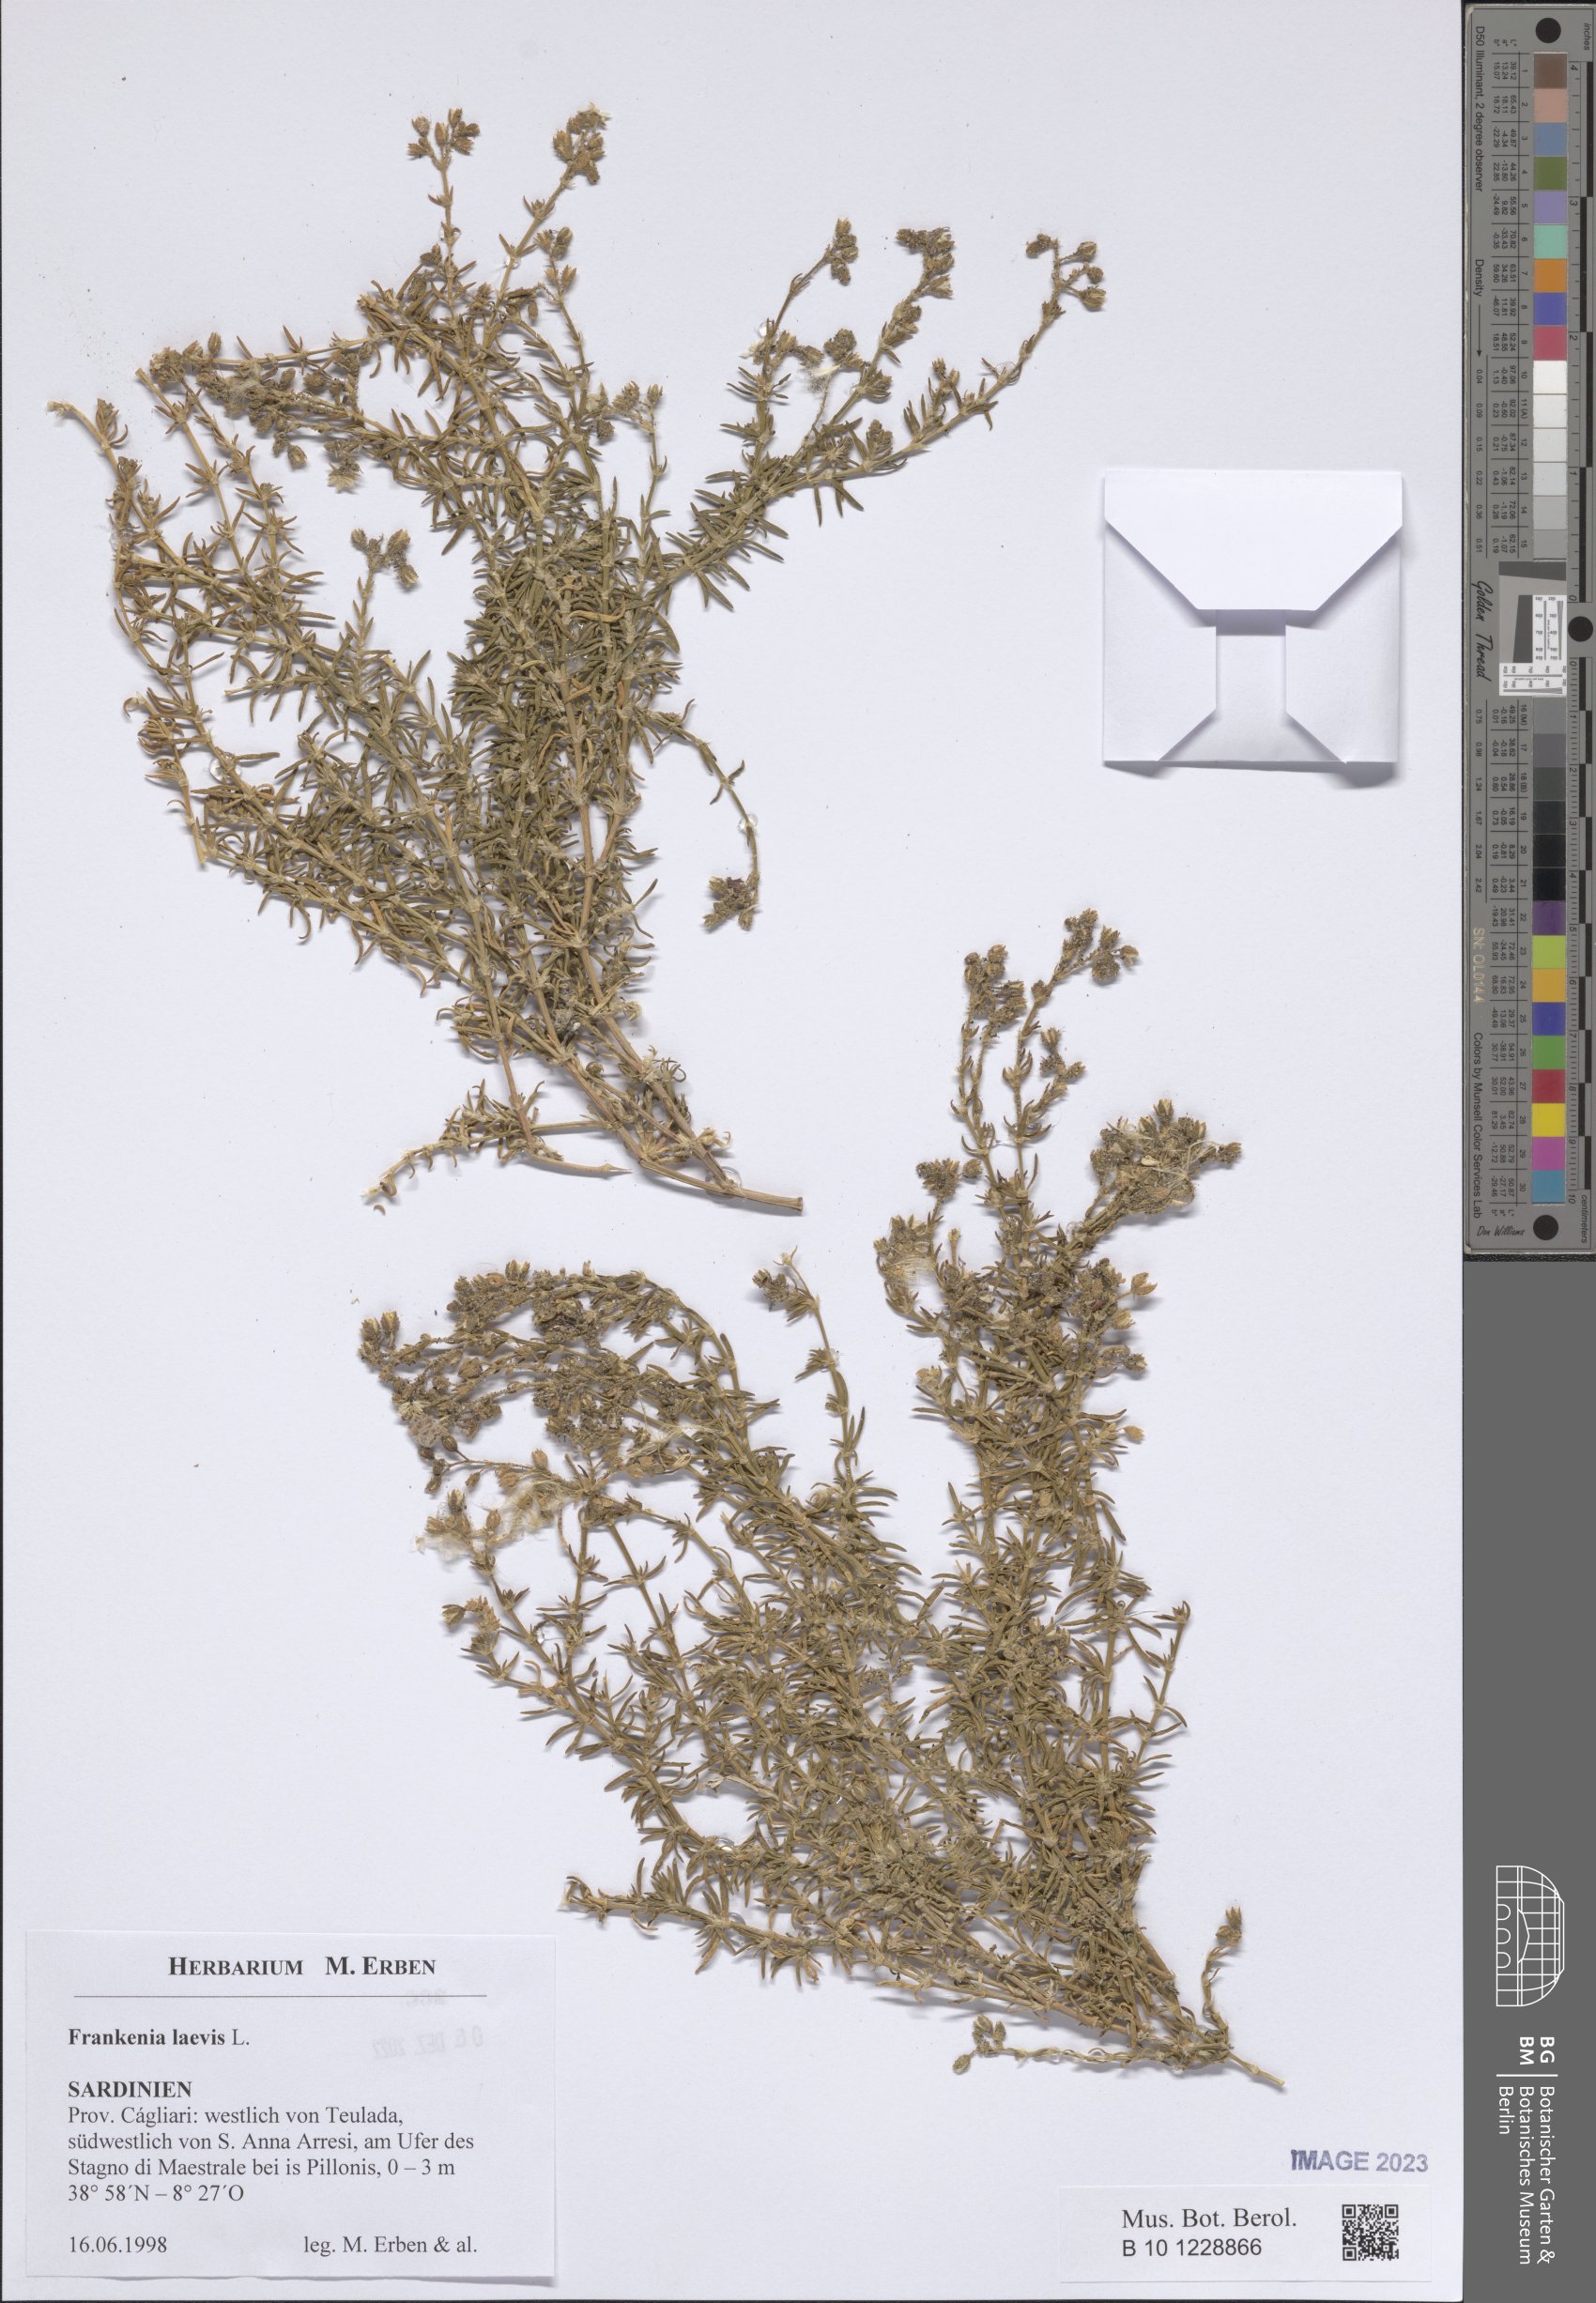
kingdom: Plantae
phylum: Tracheophyta
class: Magnoliopsida
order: Caryophyllales
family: Frankeniaceae
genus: Frankenia
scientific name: Frankenia laevis
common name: Sea-heath
